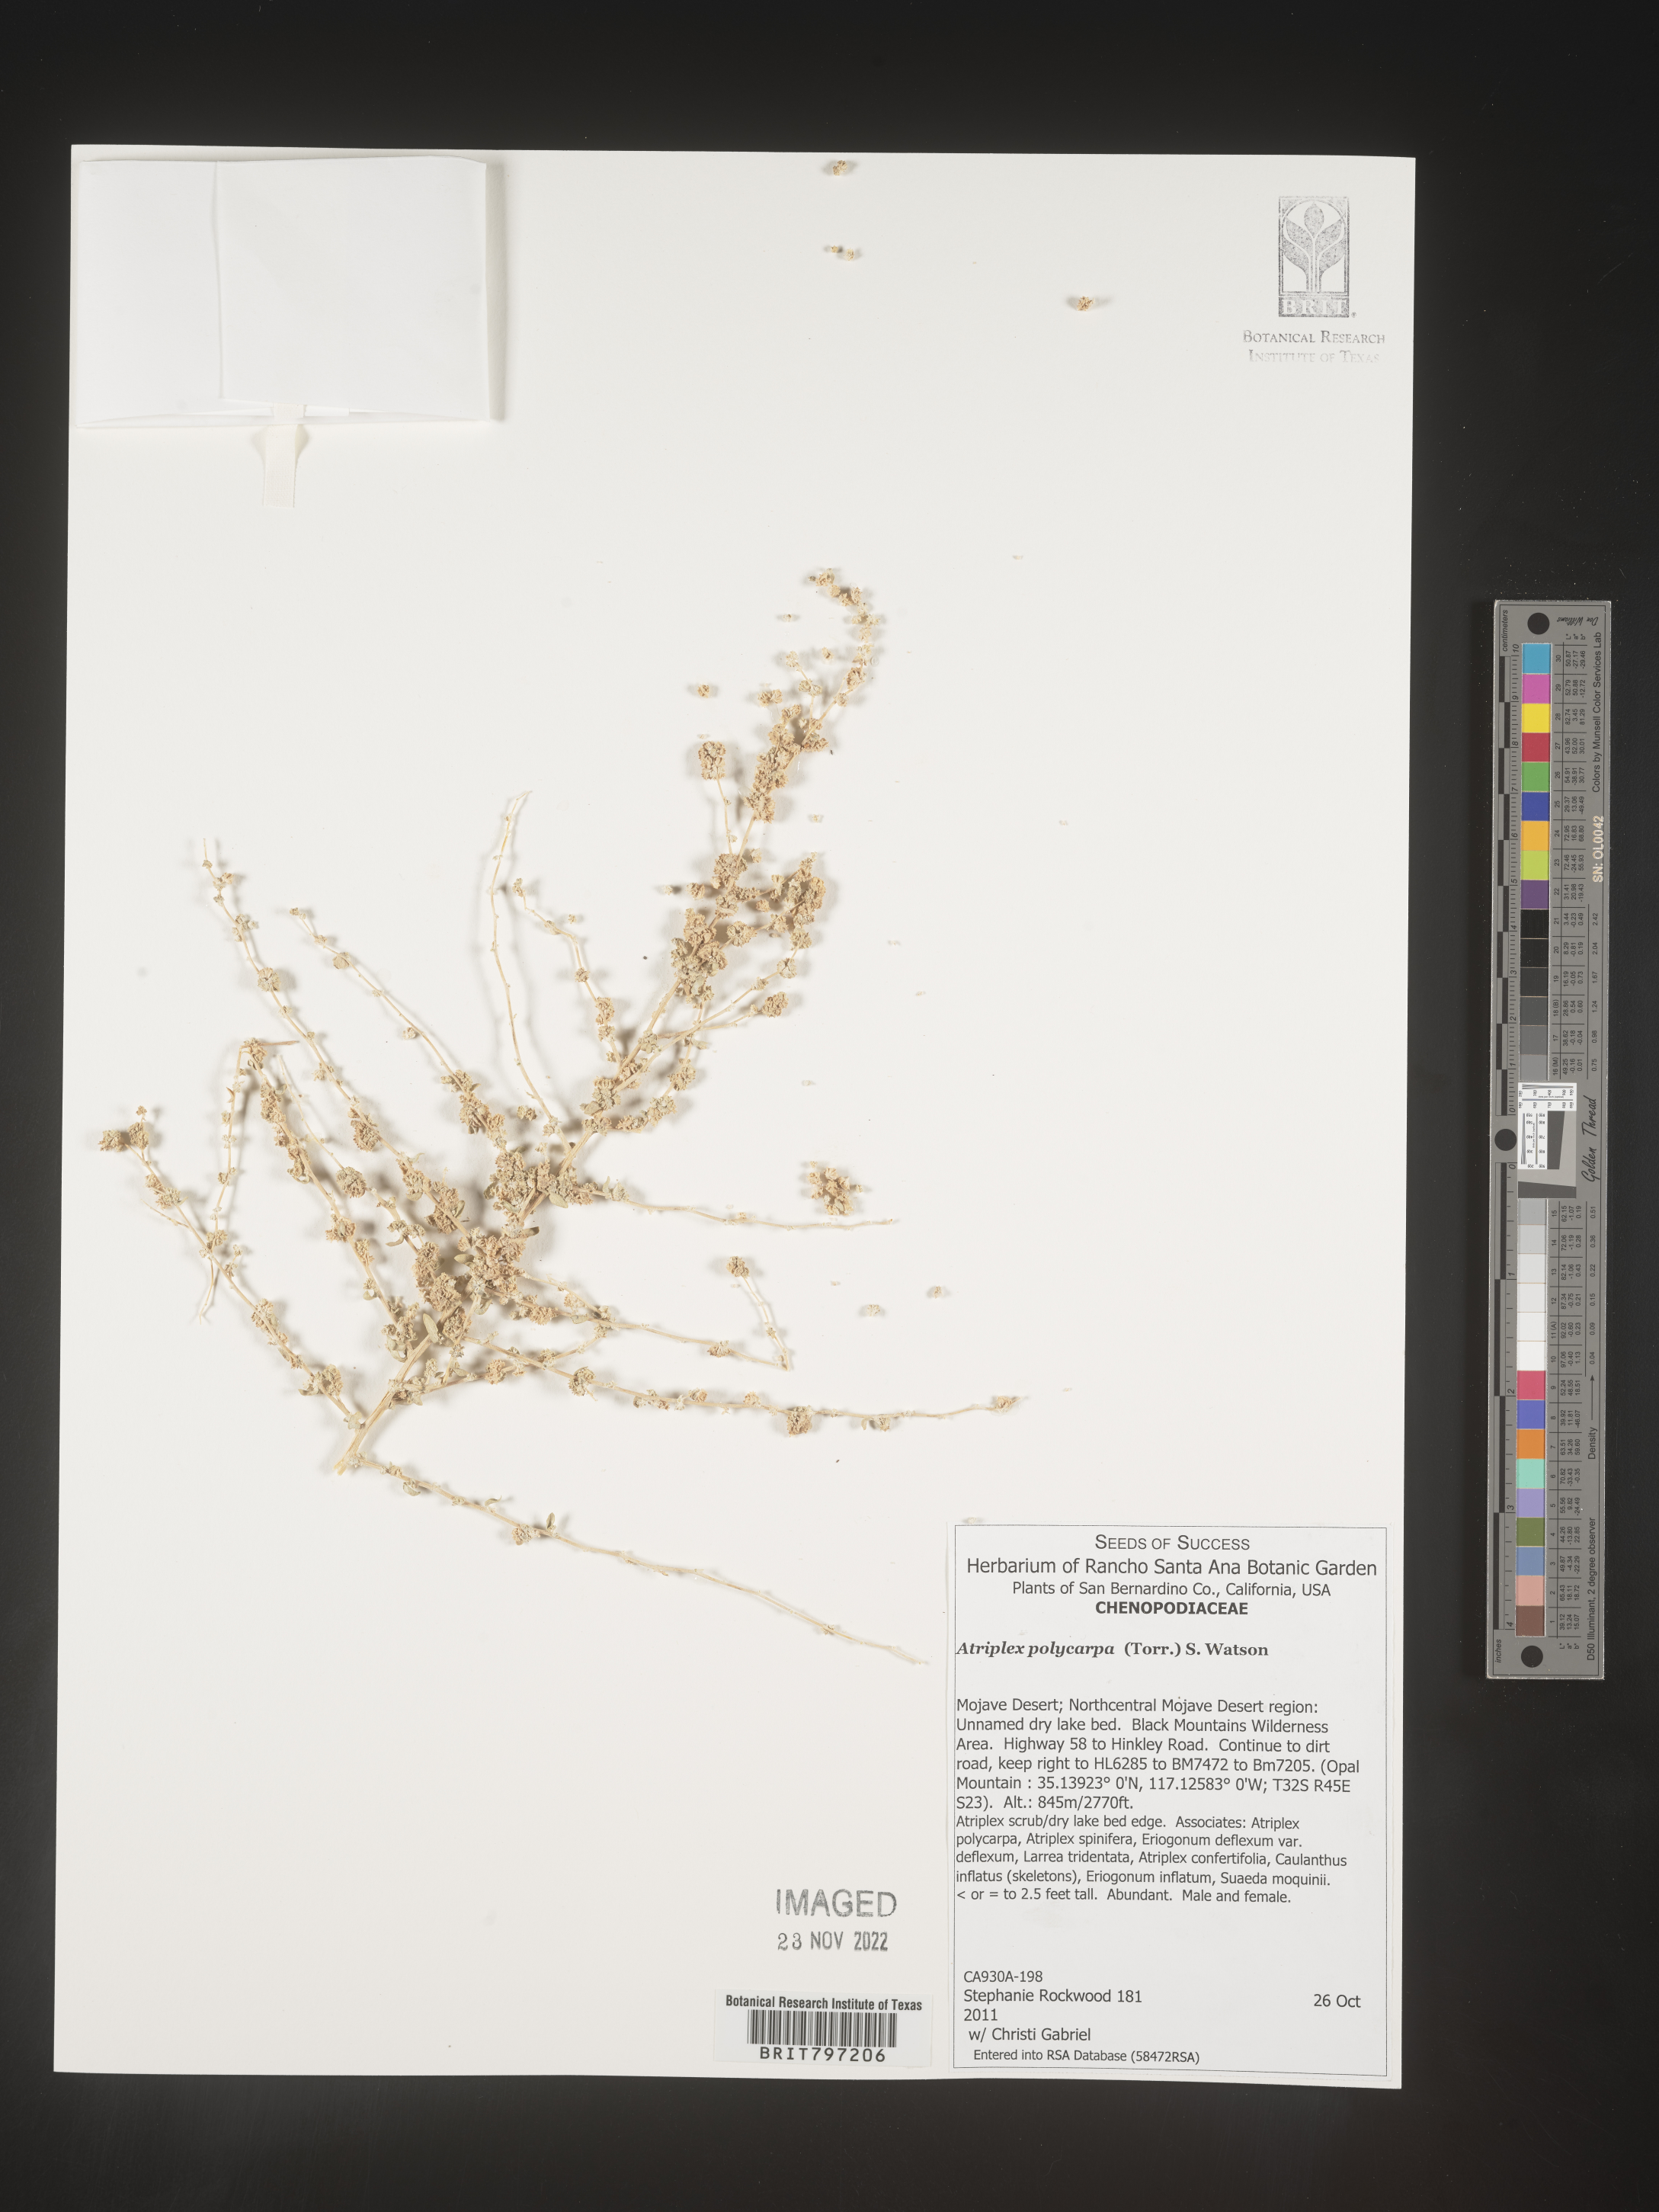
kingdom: Plantae
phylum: Tracheophyta
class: Magnoliopsida
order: Caryophyllales
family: Amaranthaceae
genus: Atriplex
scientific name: Atriplex polycarpa
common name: Desert saltbush
